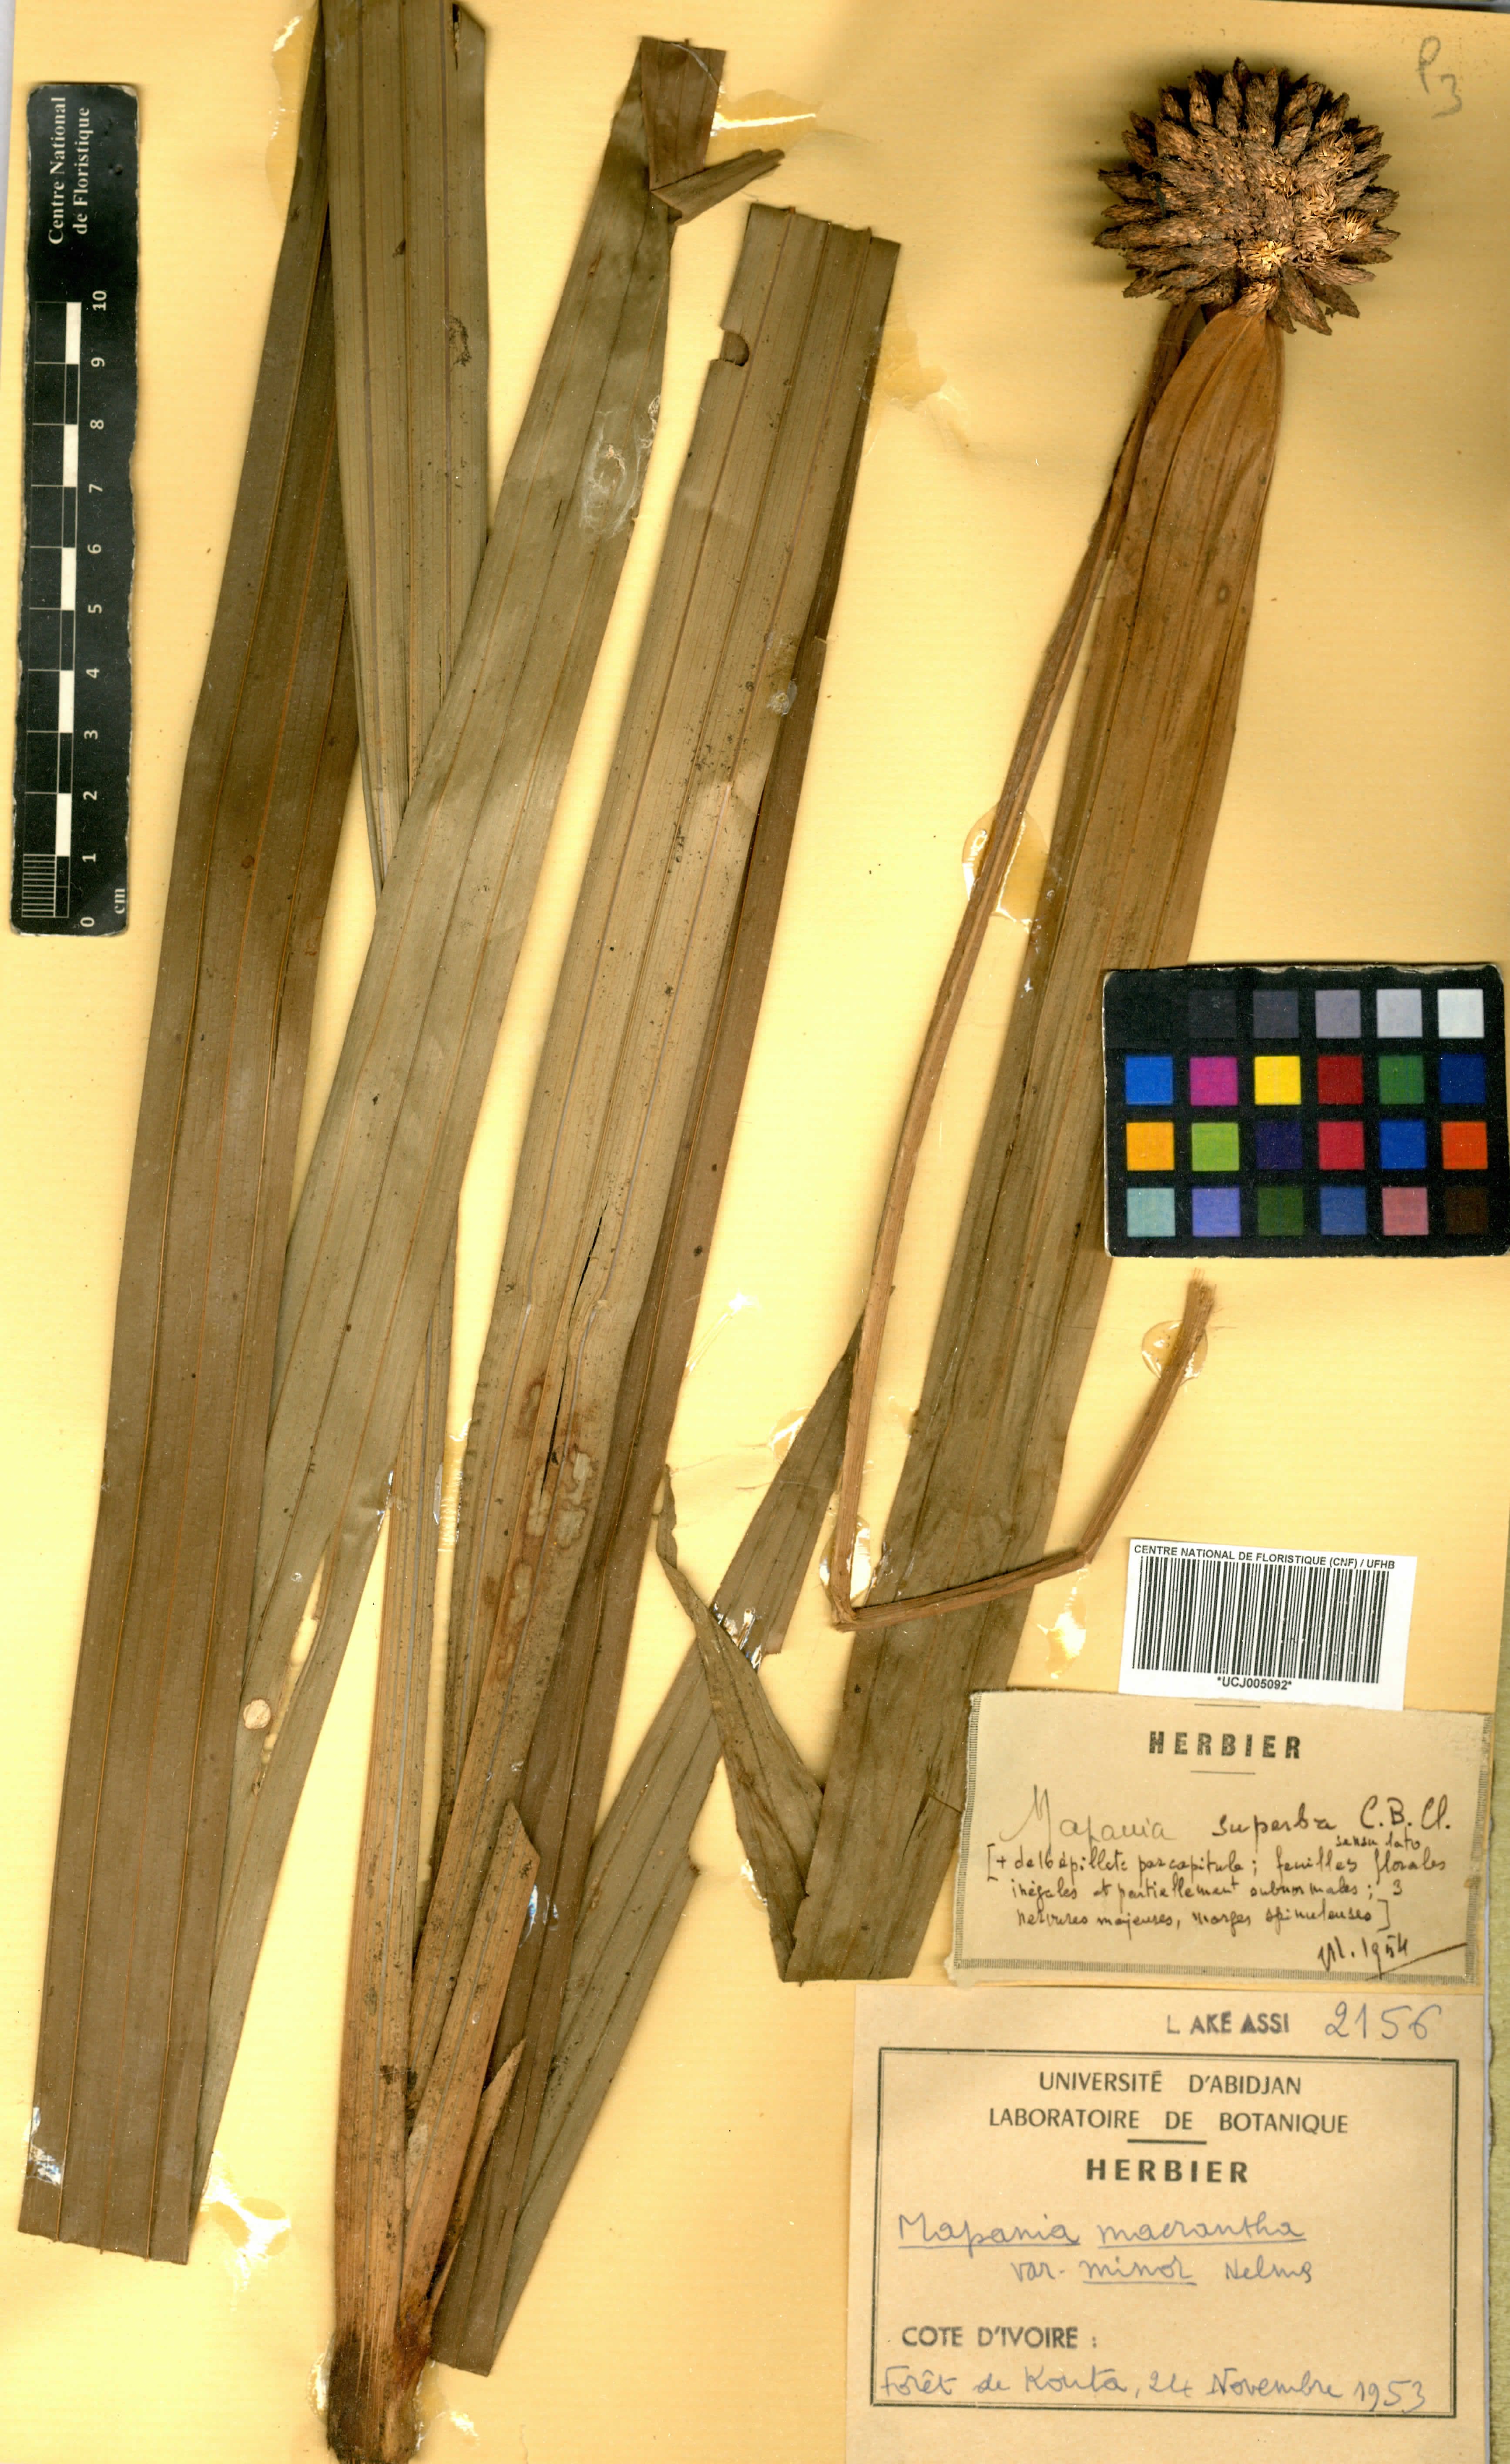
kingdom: Plantae
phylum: Tracheophyta
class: Liliopsida
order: Poales
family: Cyperaceae
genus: Mapania
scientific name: Mapania minor
